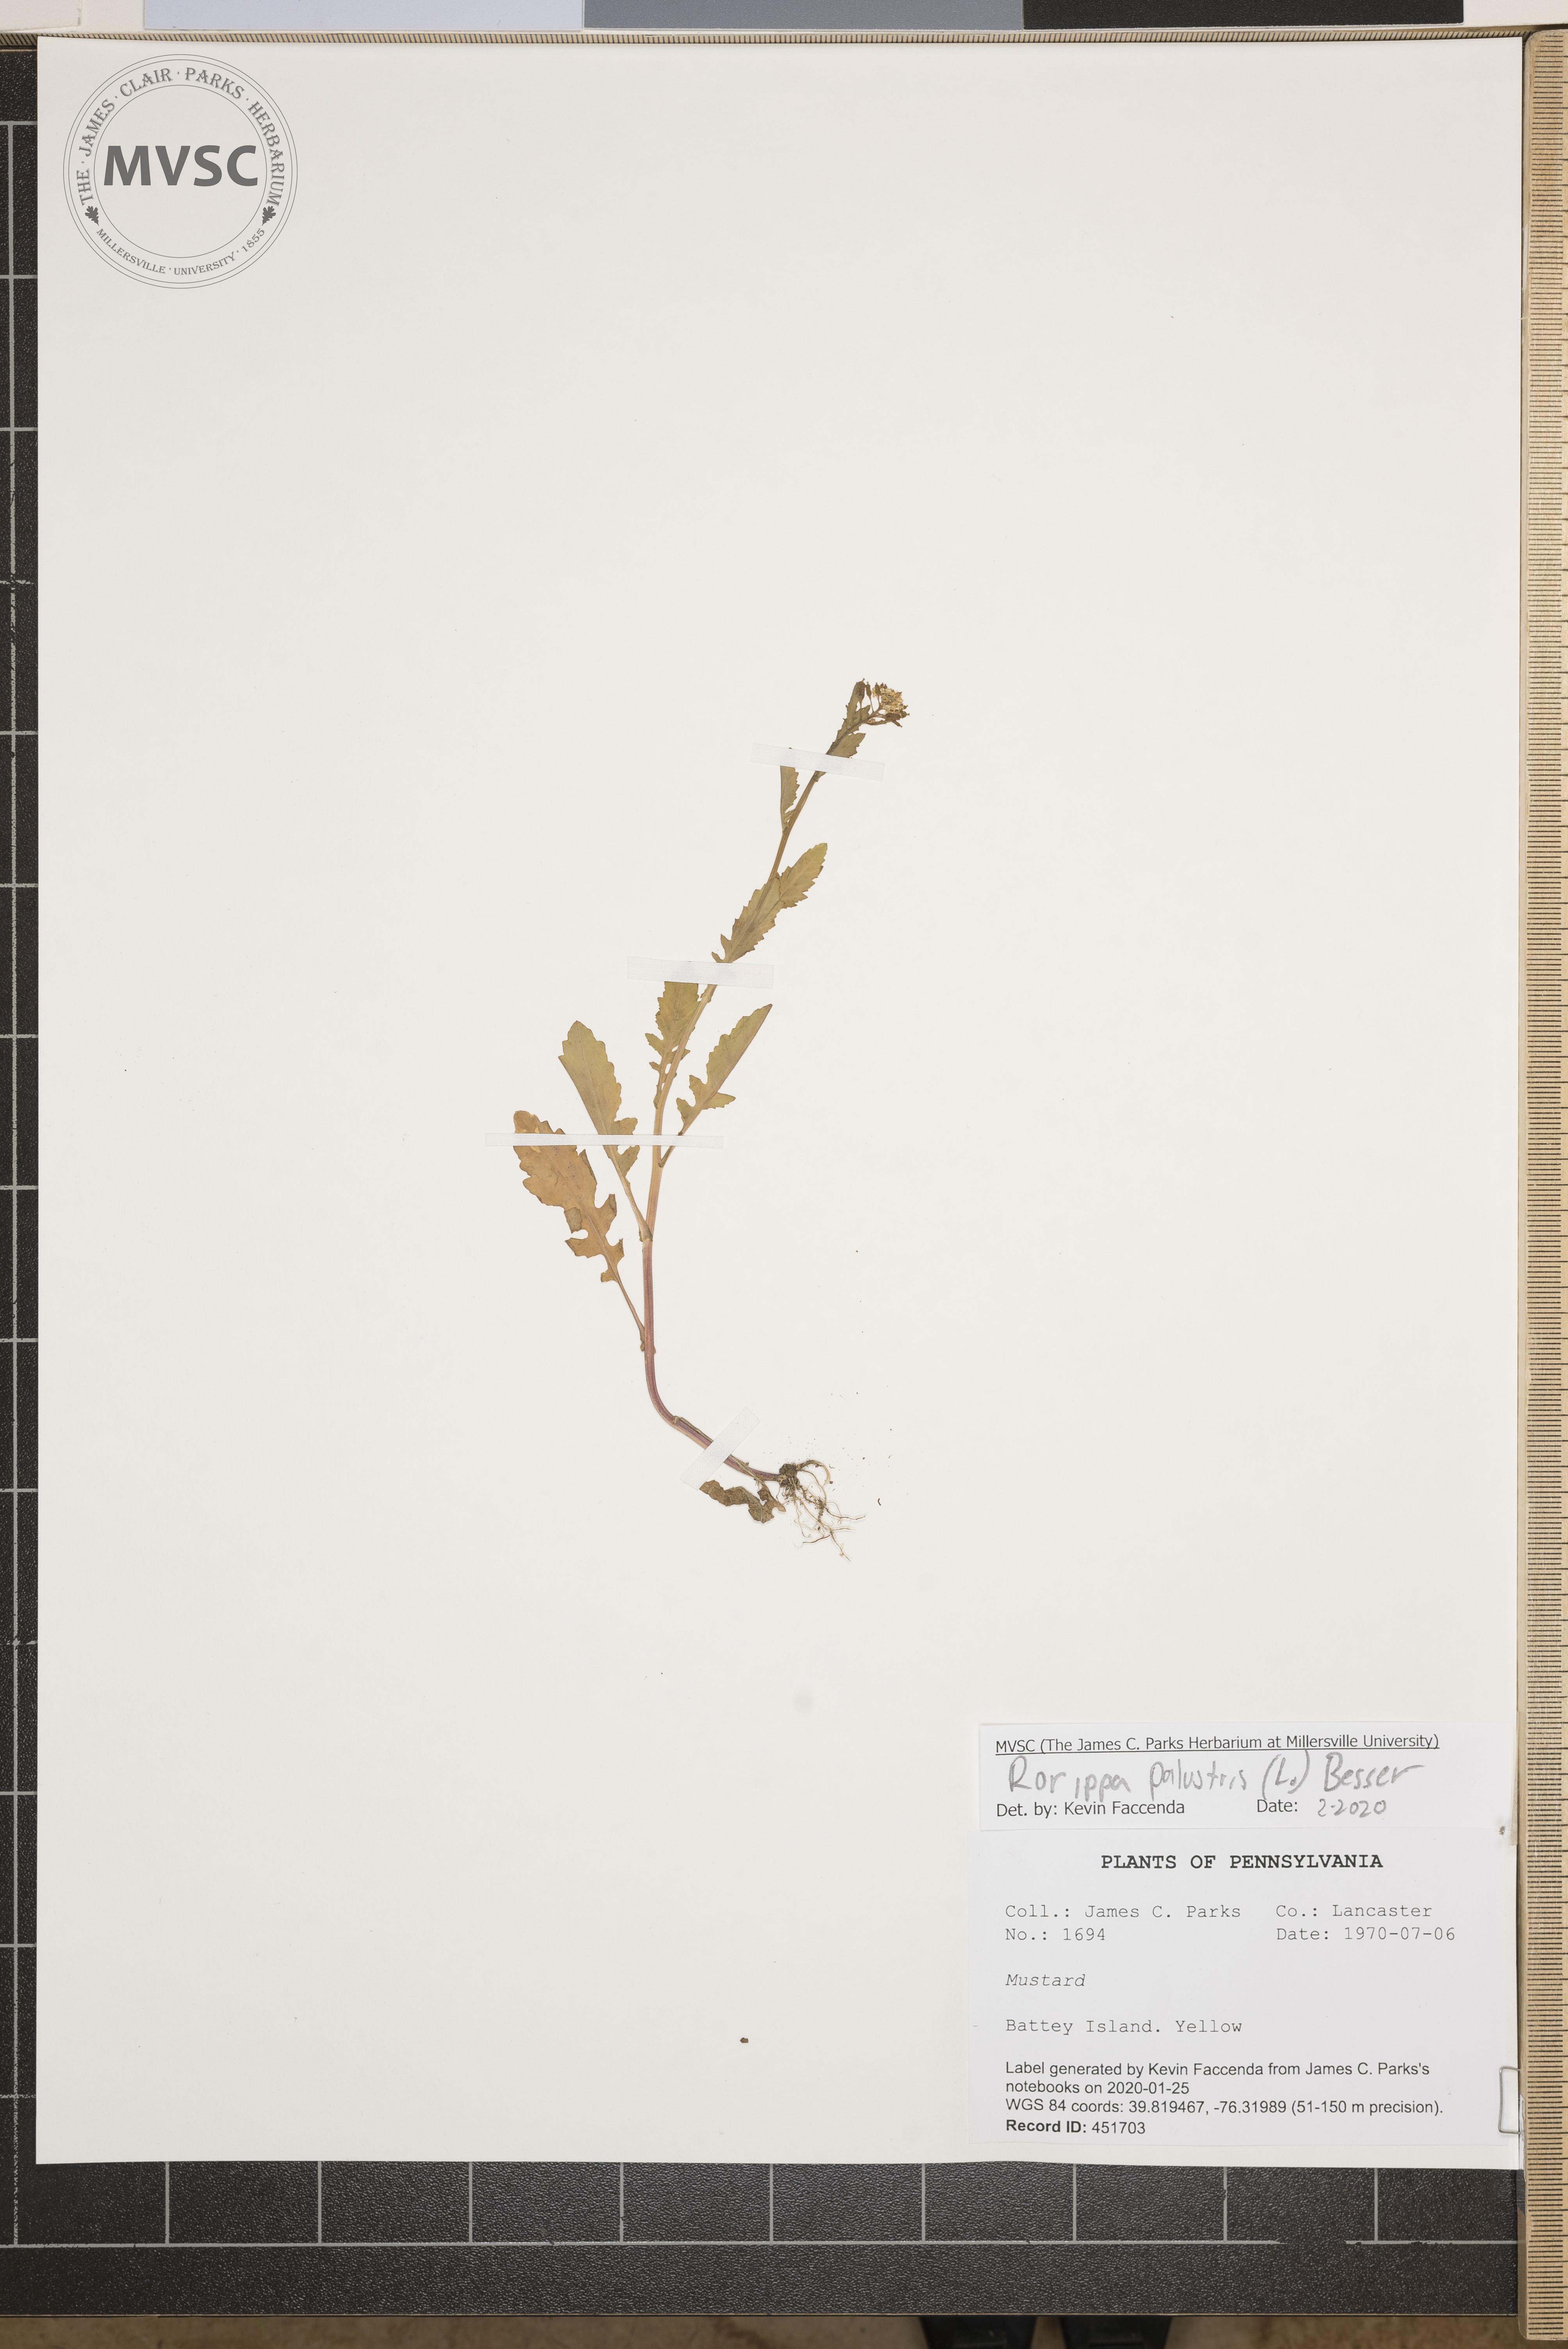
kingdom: Plantae
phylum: Tracheophyta
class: Magnoliopsida
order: Brassicales
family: Brassicaceae
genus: Rorippa
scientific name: Rorippa palustris
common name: Marsh yellow-cress
